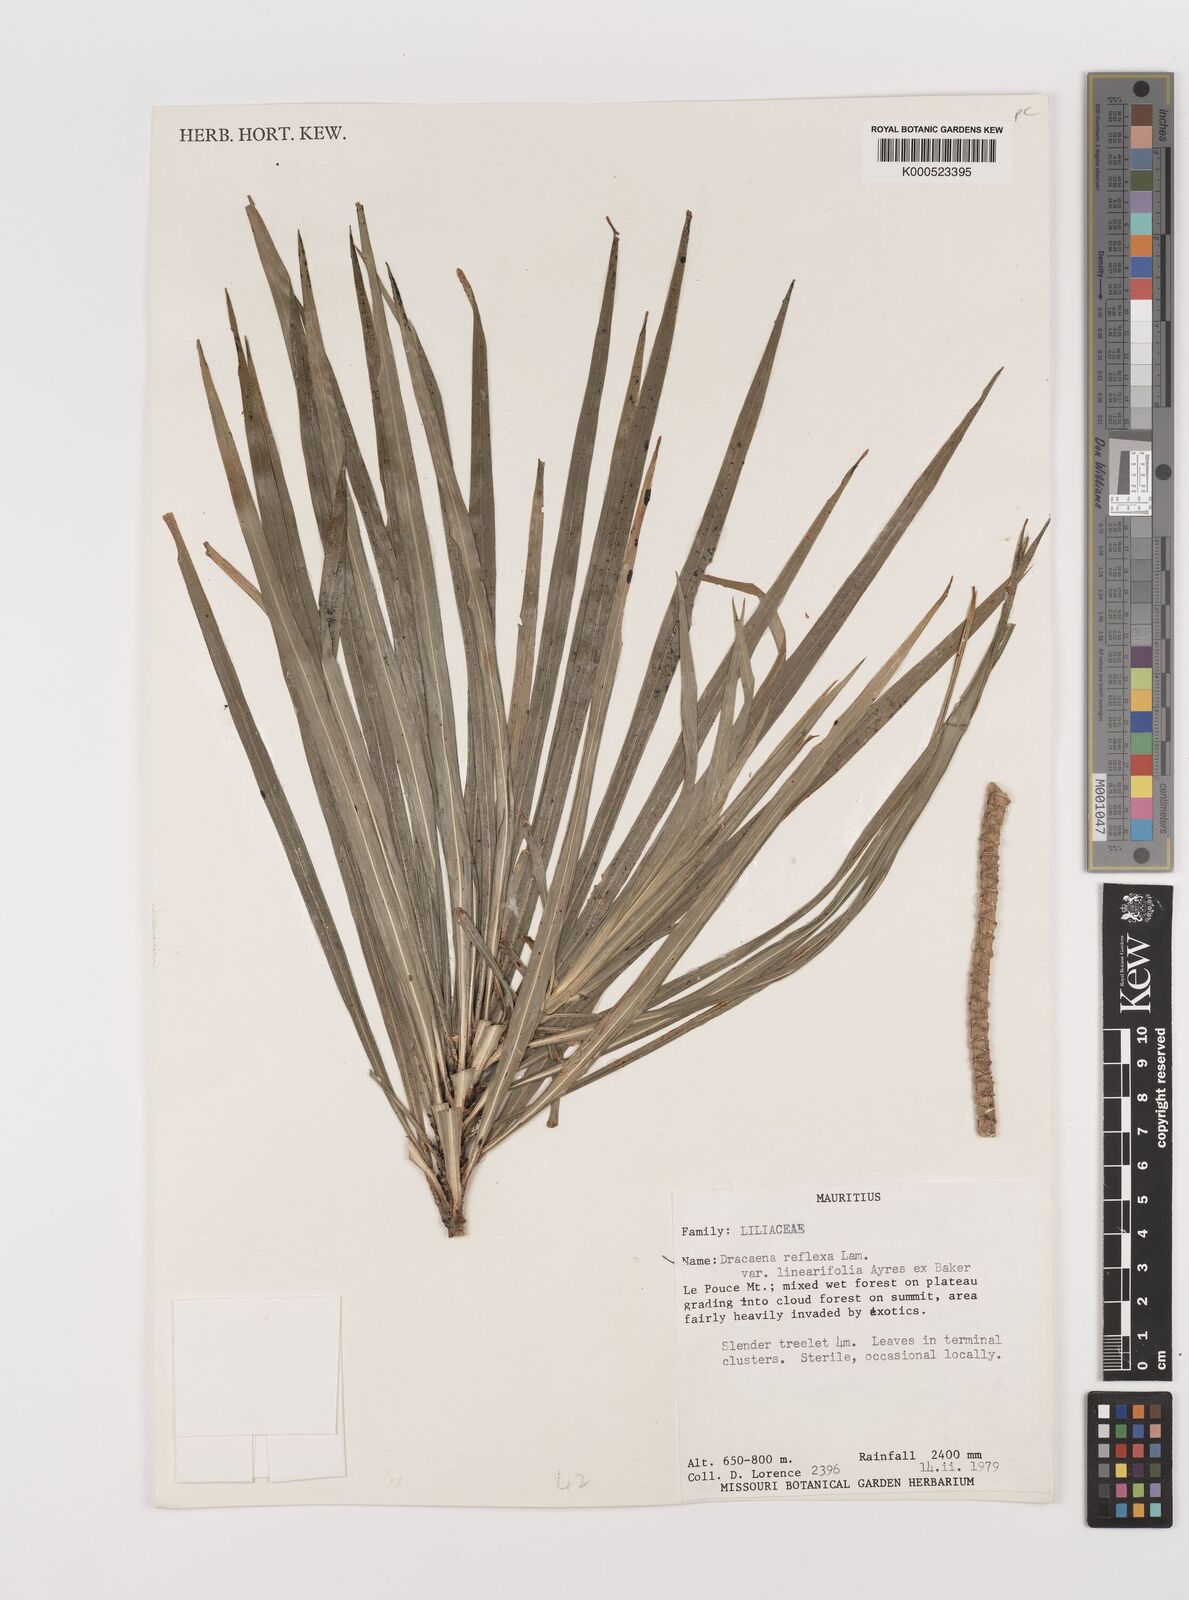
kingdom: Plantae
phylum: Tracheophyta
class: Liliopsida
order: Asparagales
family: Asparagaceae
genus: Dracaena
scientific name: Dracaena reflexa
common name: Song-of-india
